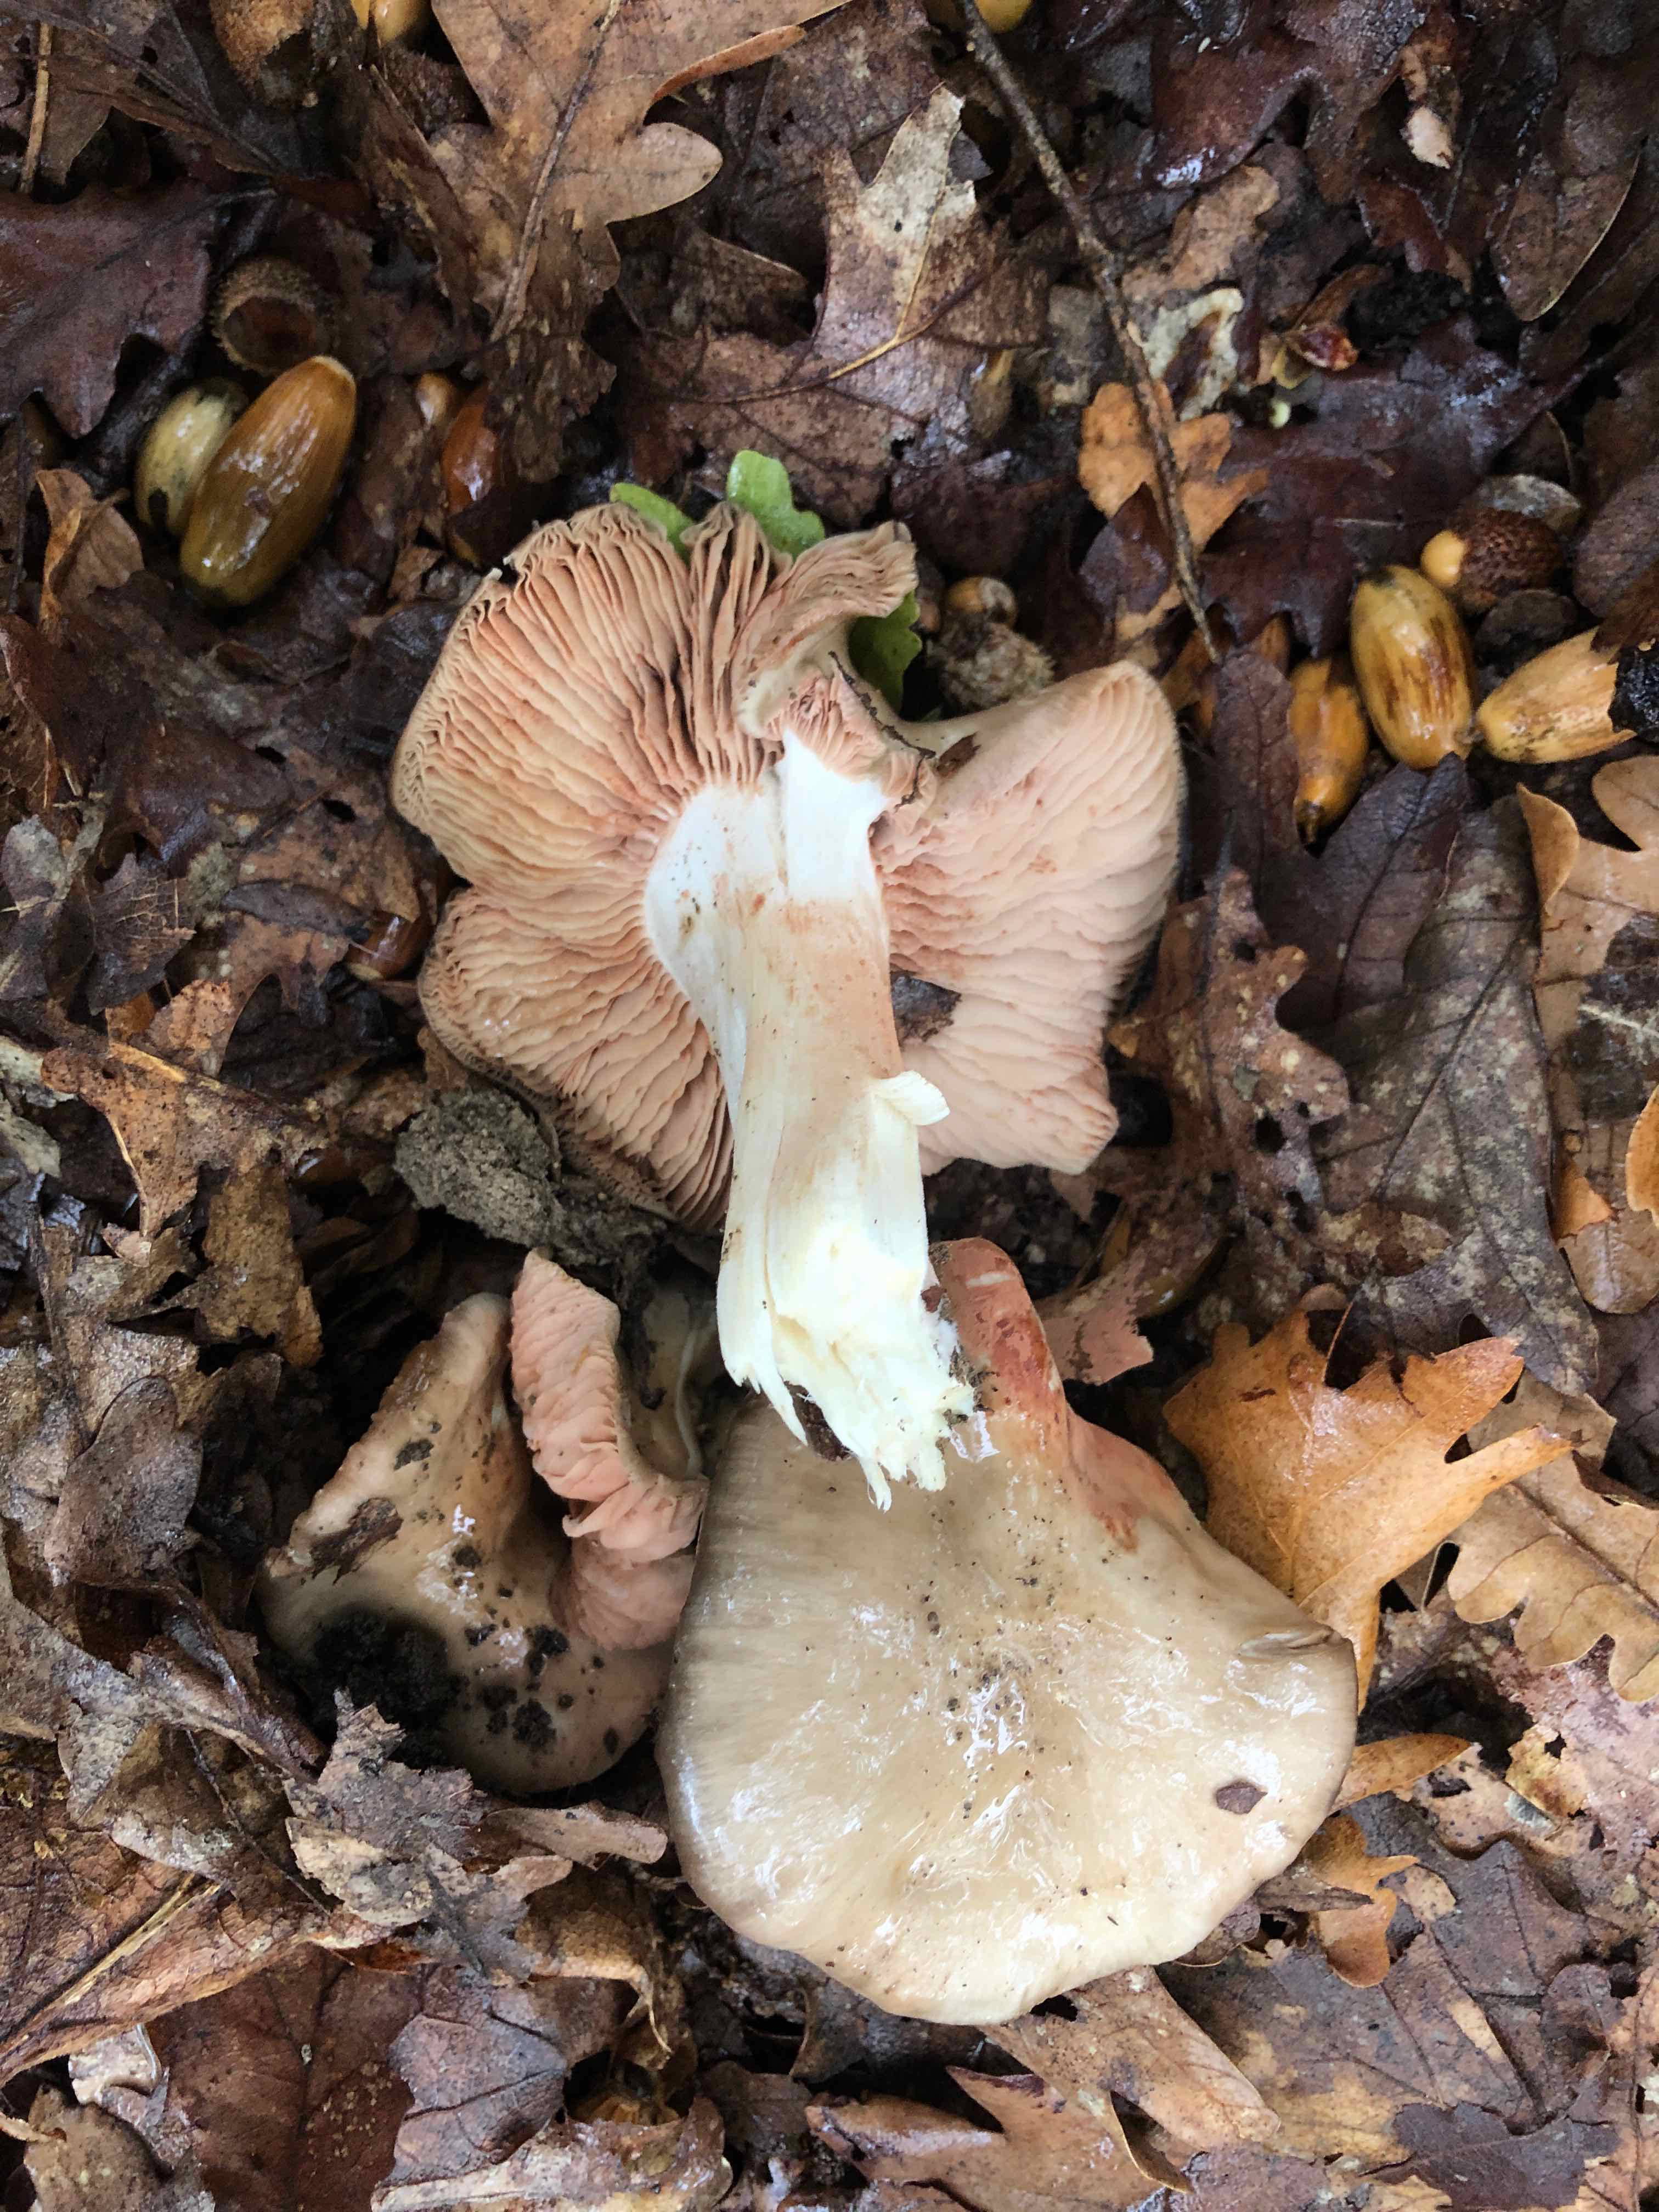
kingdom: Fungi
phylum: Basidiomycota
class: Agaricomycetes
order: Agaricales
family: Entolomataceae
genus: Entoloma
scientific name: Entoloma sinuatum
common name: giftig rødblad
